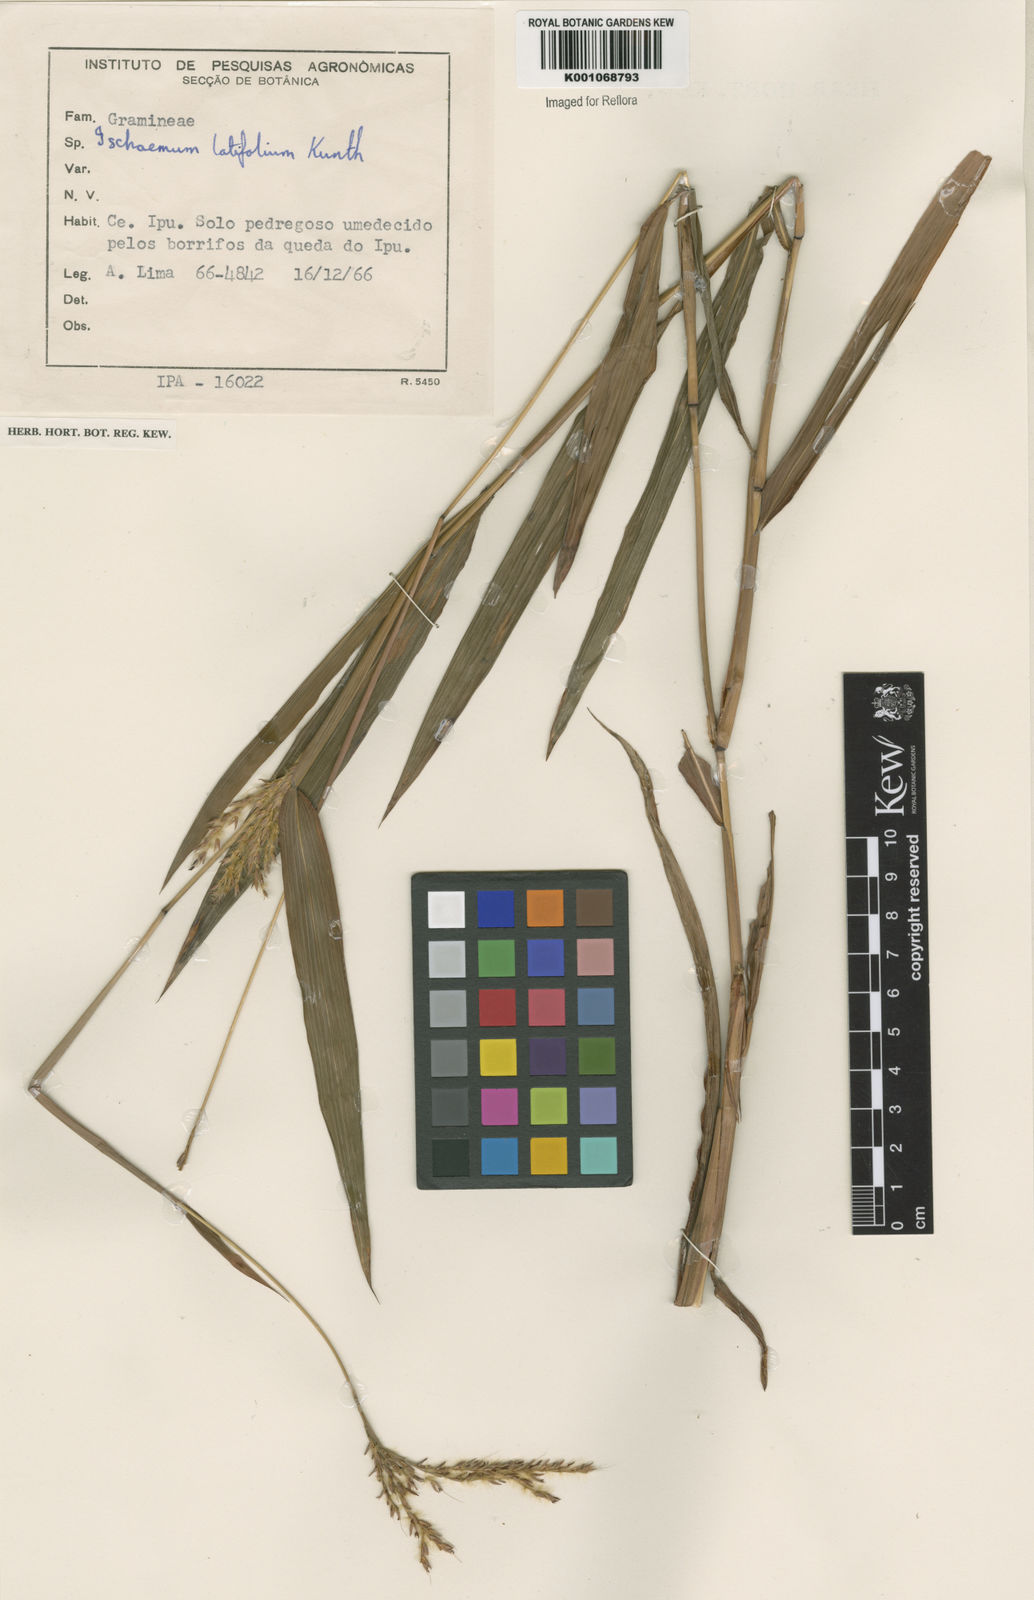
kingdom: Plantae
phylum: Tracheophyta
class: Liliopsida
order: Poales
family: Poaceae
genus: Ischaemum
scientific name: Ischaemum latifolium
